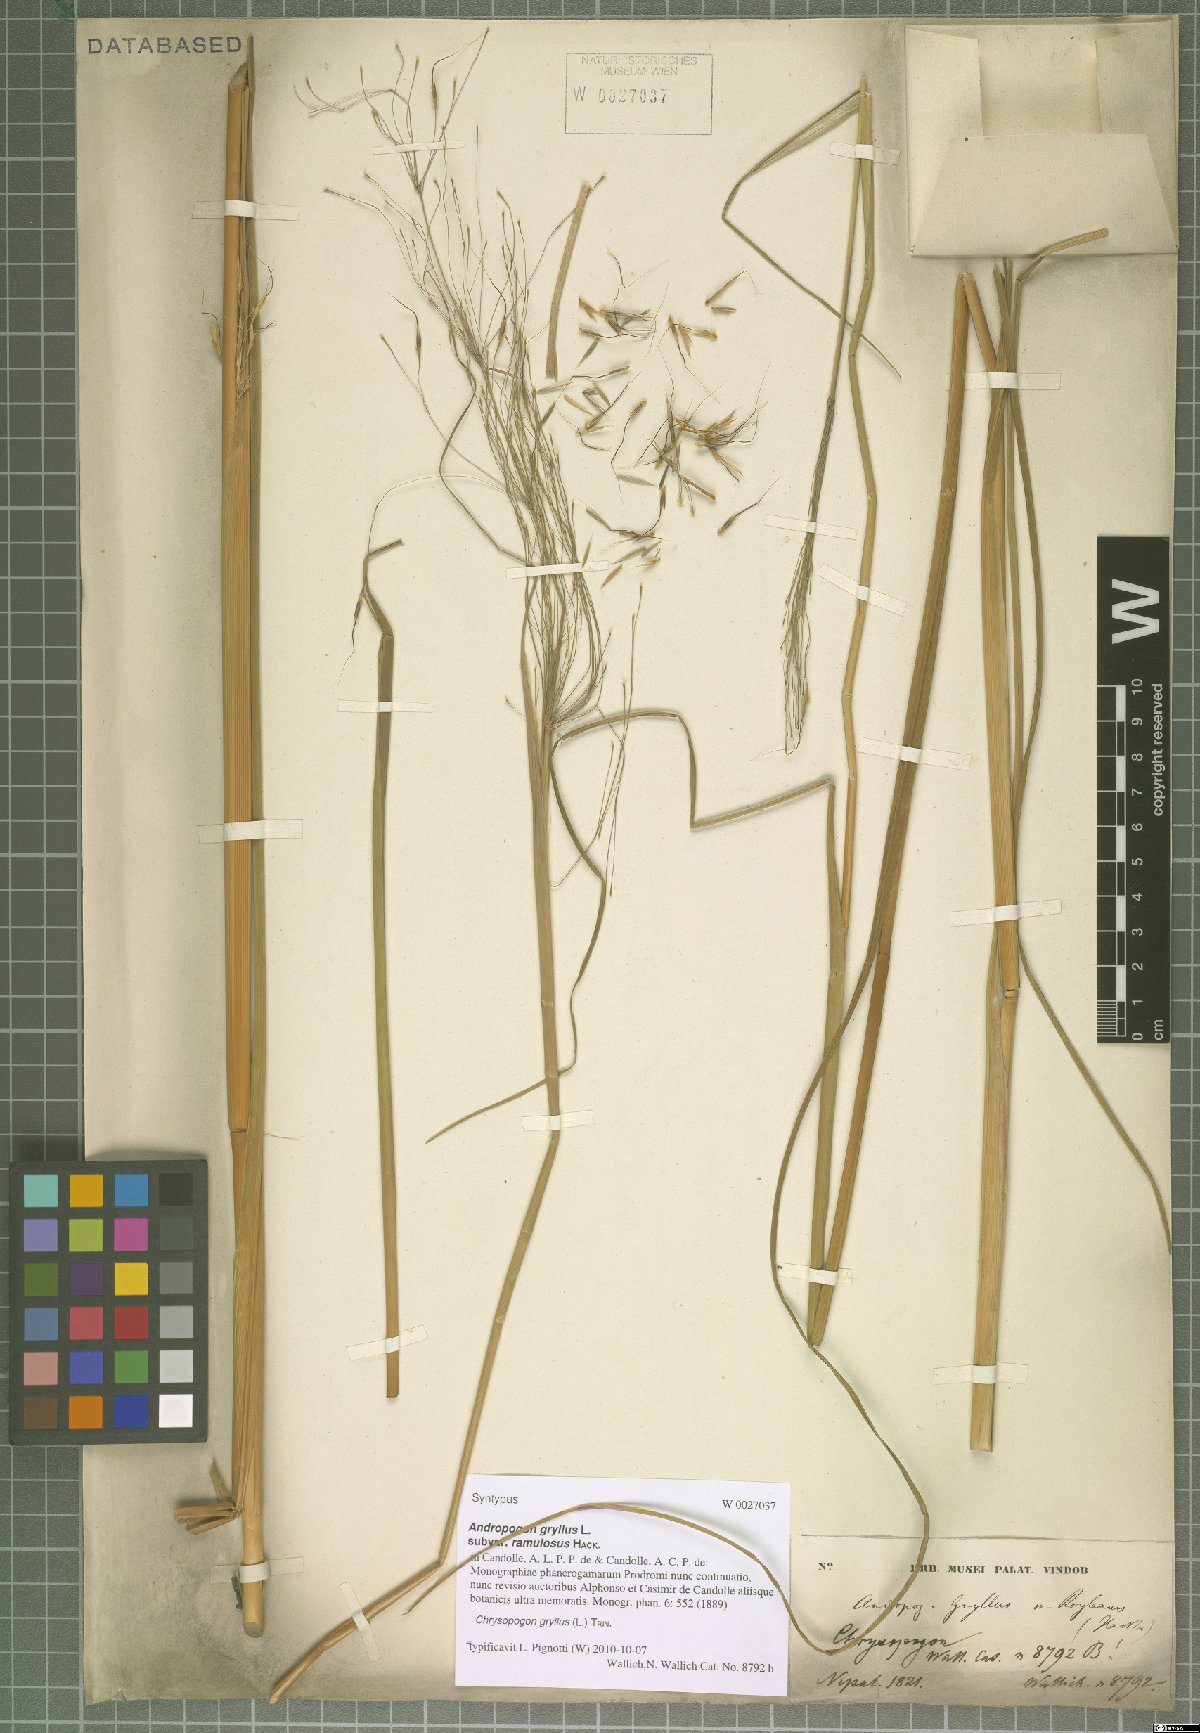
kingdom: Plantae
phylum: Tracheophyta
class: Liliopsida
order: Poales
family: Poaceae
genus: Chrysopogon
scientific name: Chrysopogon gryllus
